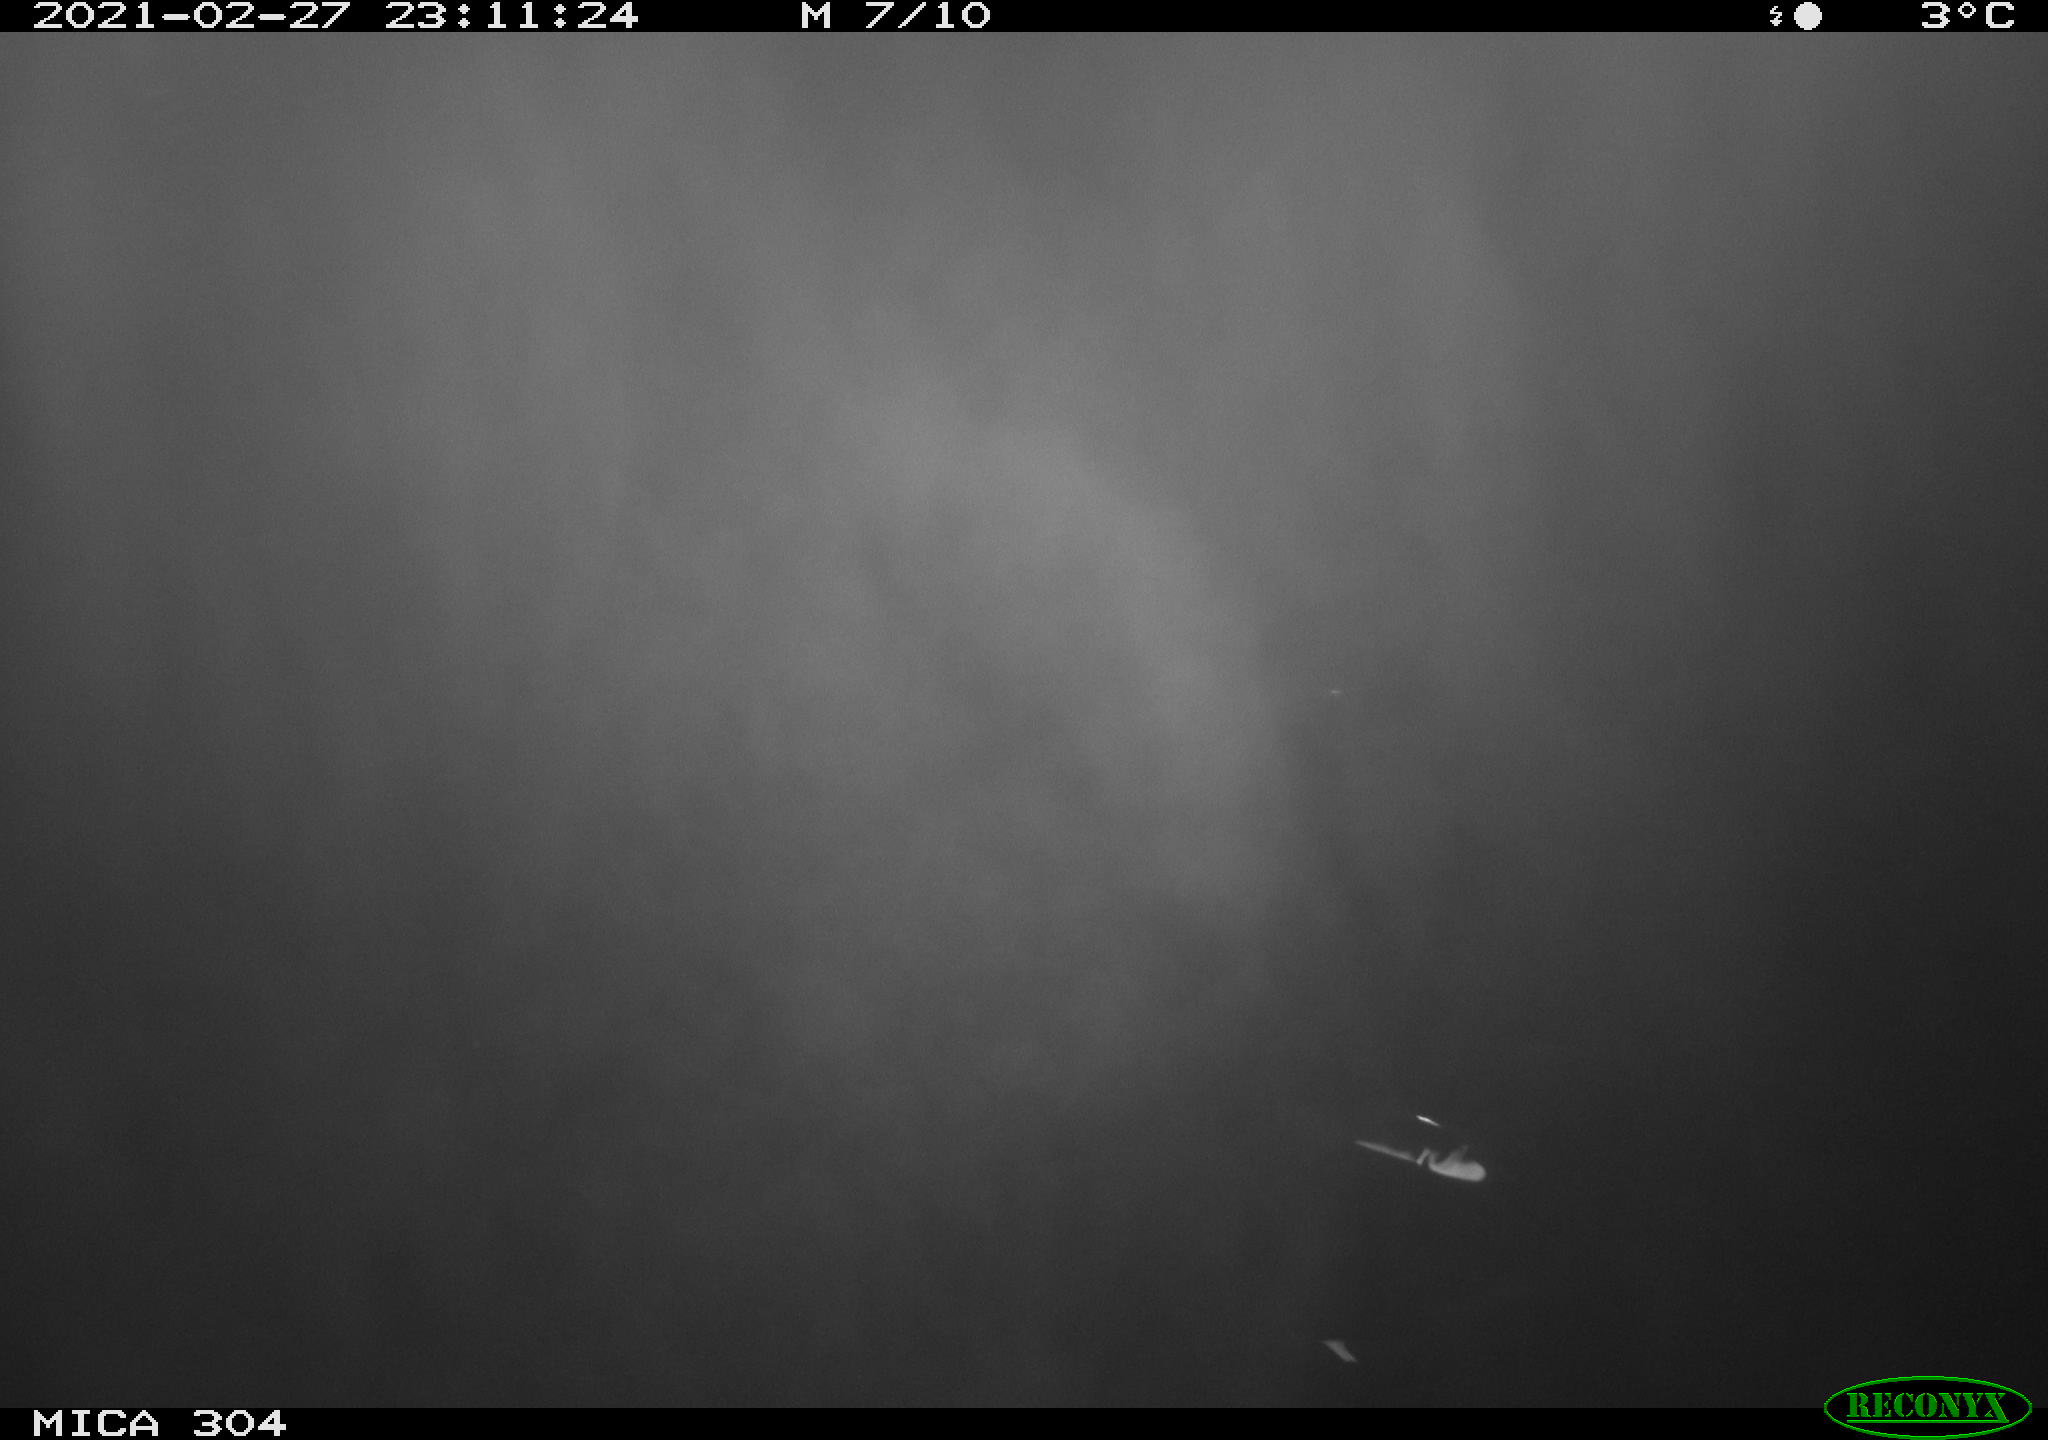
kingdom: Animalia
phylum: Chordata
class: Mammalia
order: Rodentia
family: Cricetidae
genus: Ondatra
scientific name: Ondatra zibethicus
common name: Muskrat
